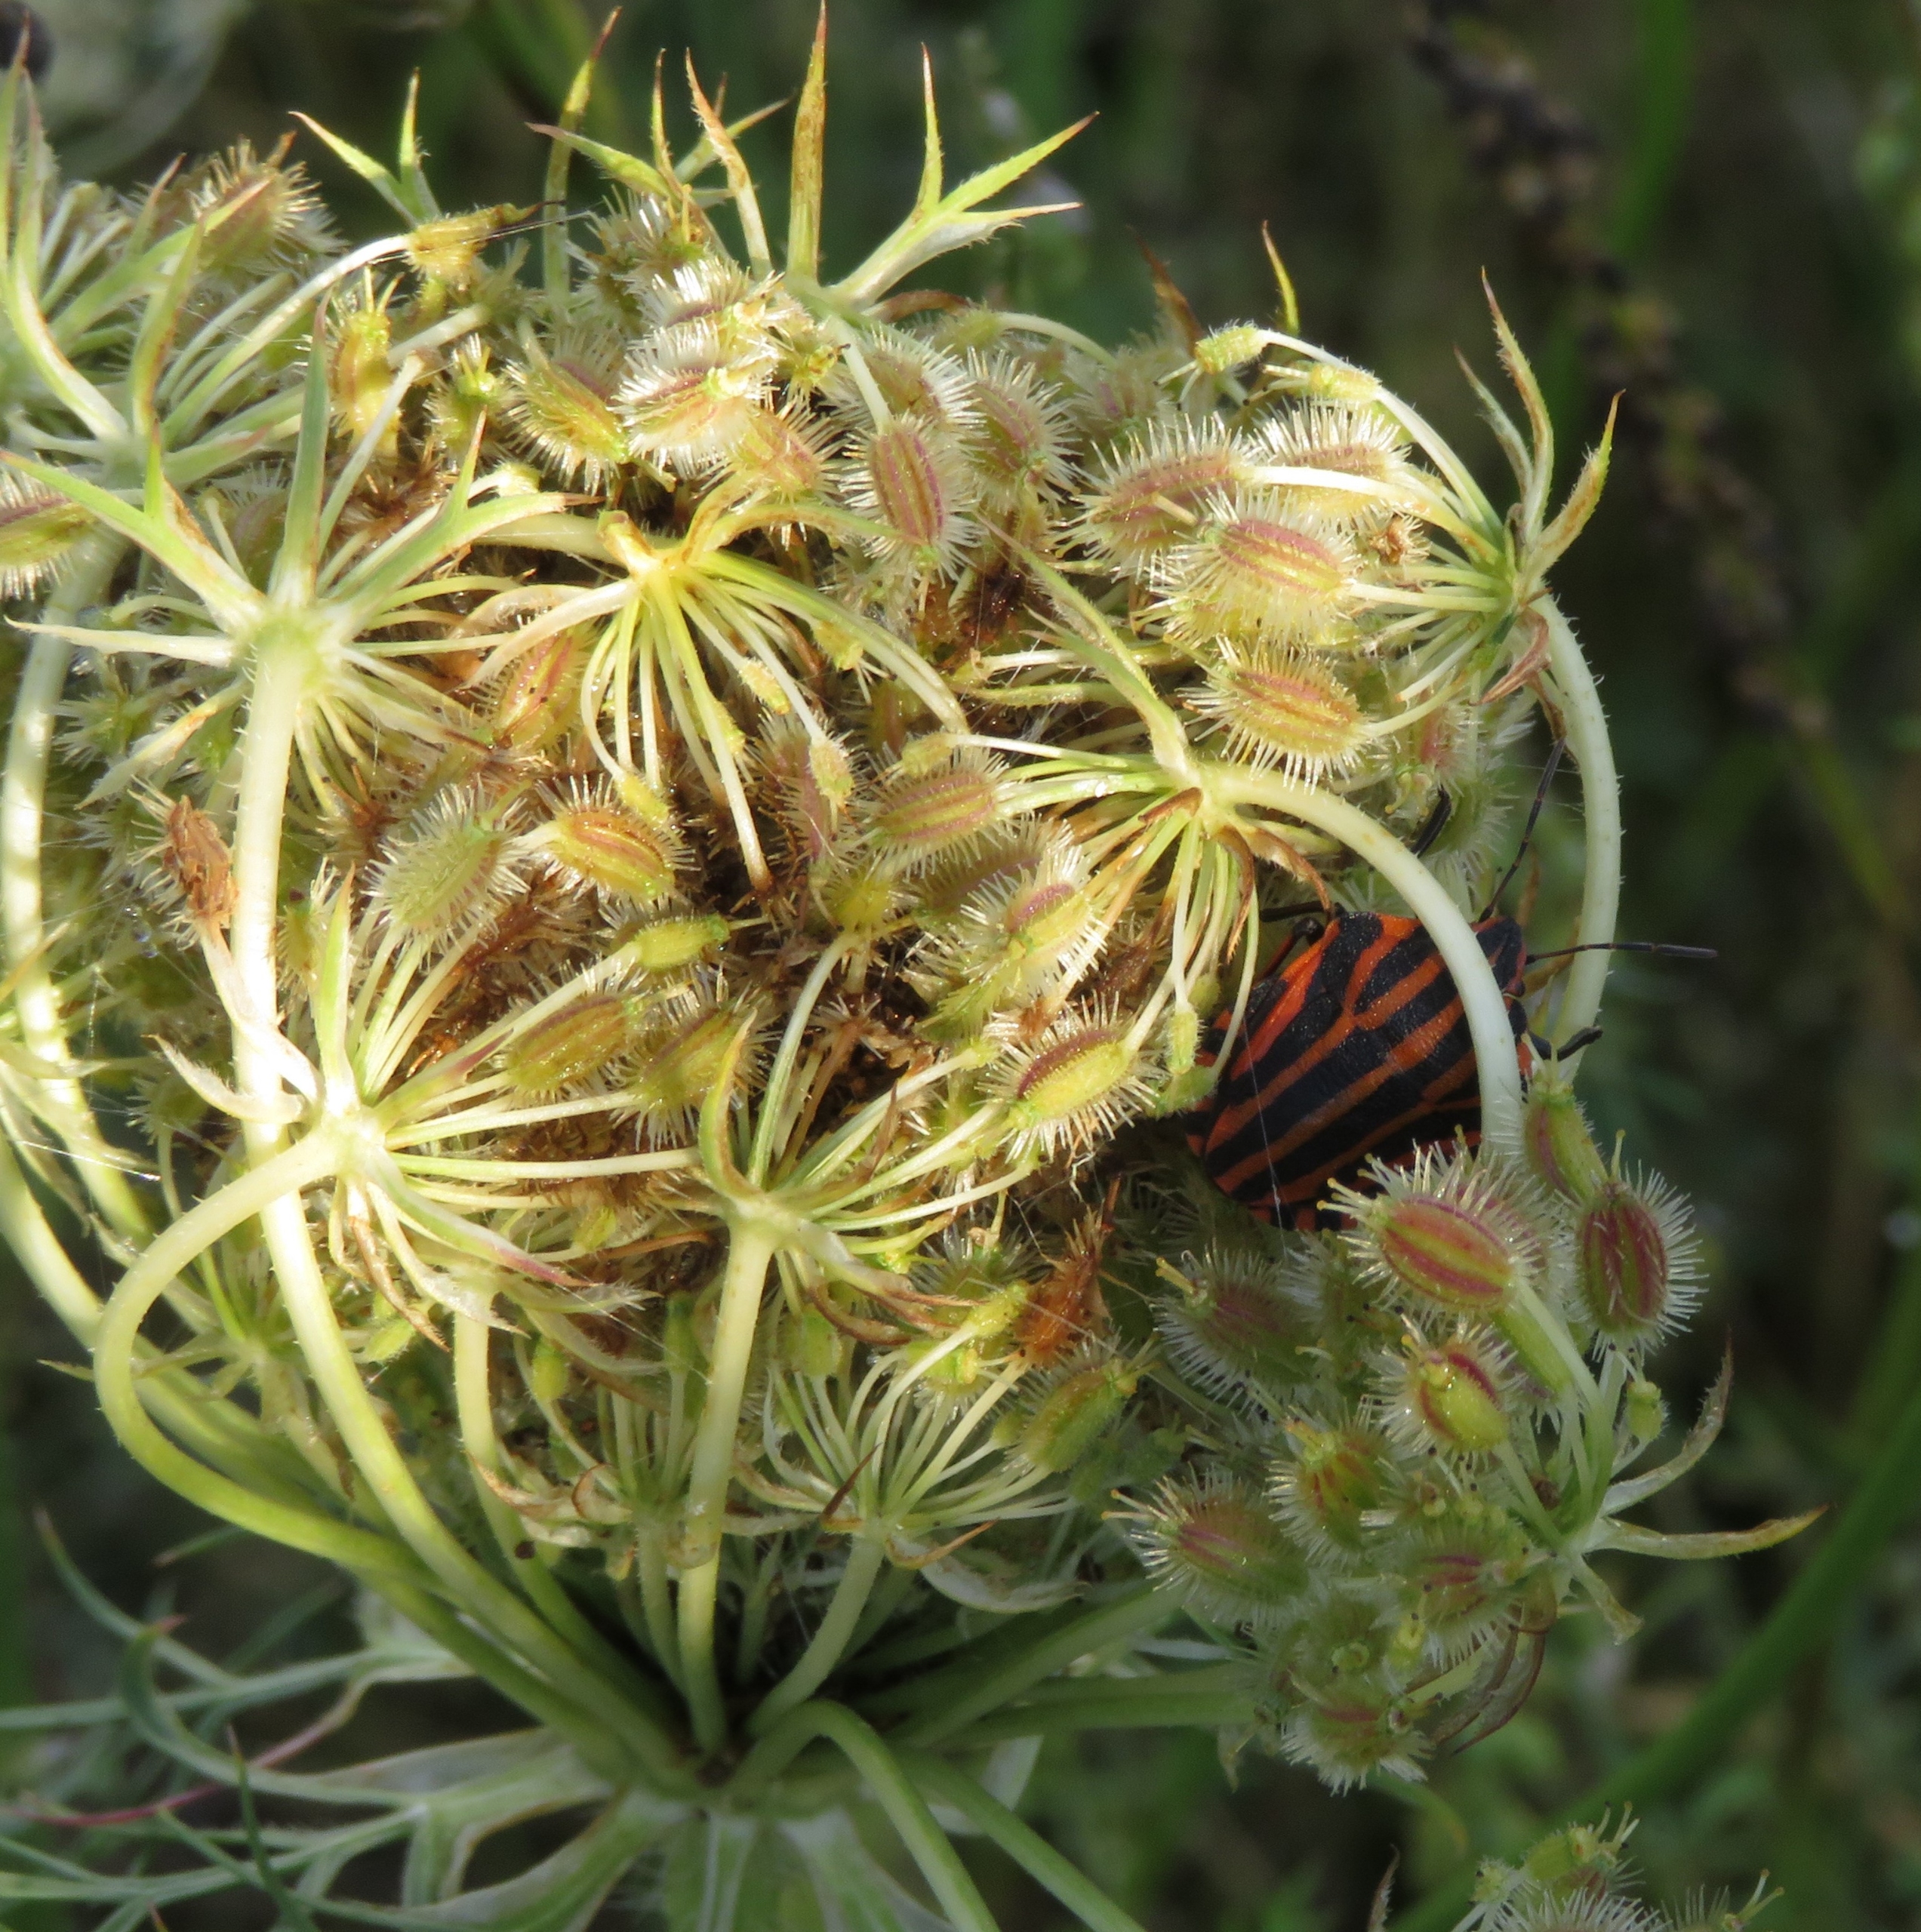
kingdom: Animalia
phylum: Arthropoda
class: Insecta
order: Hemiptera
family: Pentatomidae
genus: Graphosoma
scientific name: Graphosoma italicum
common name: Stribetæge
